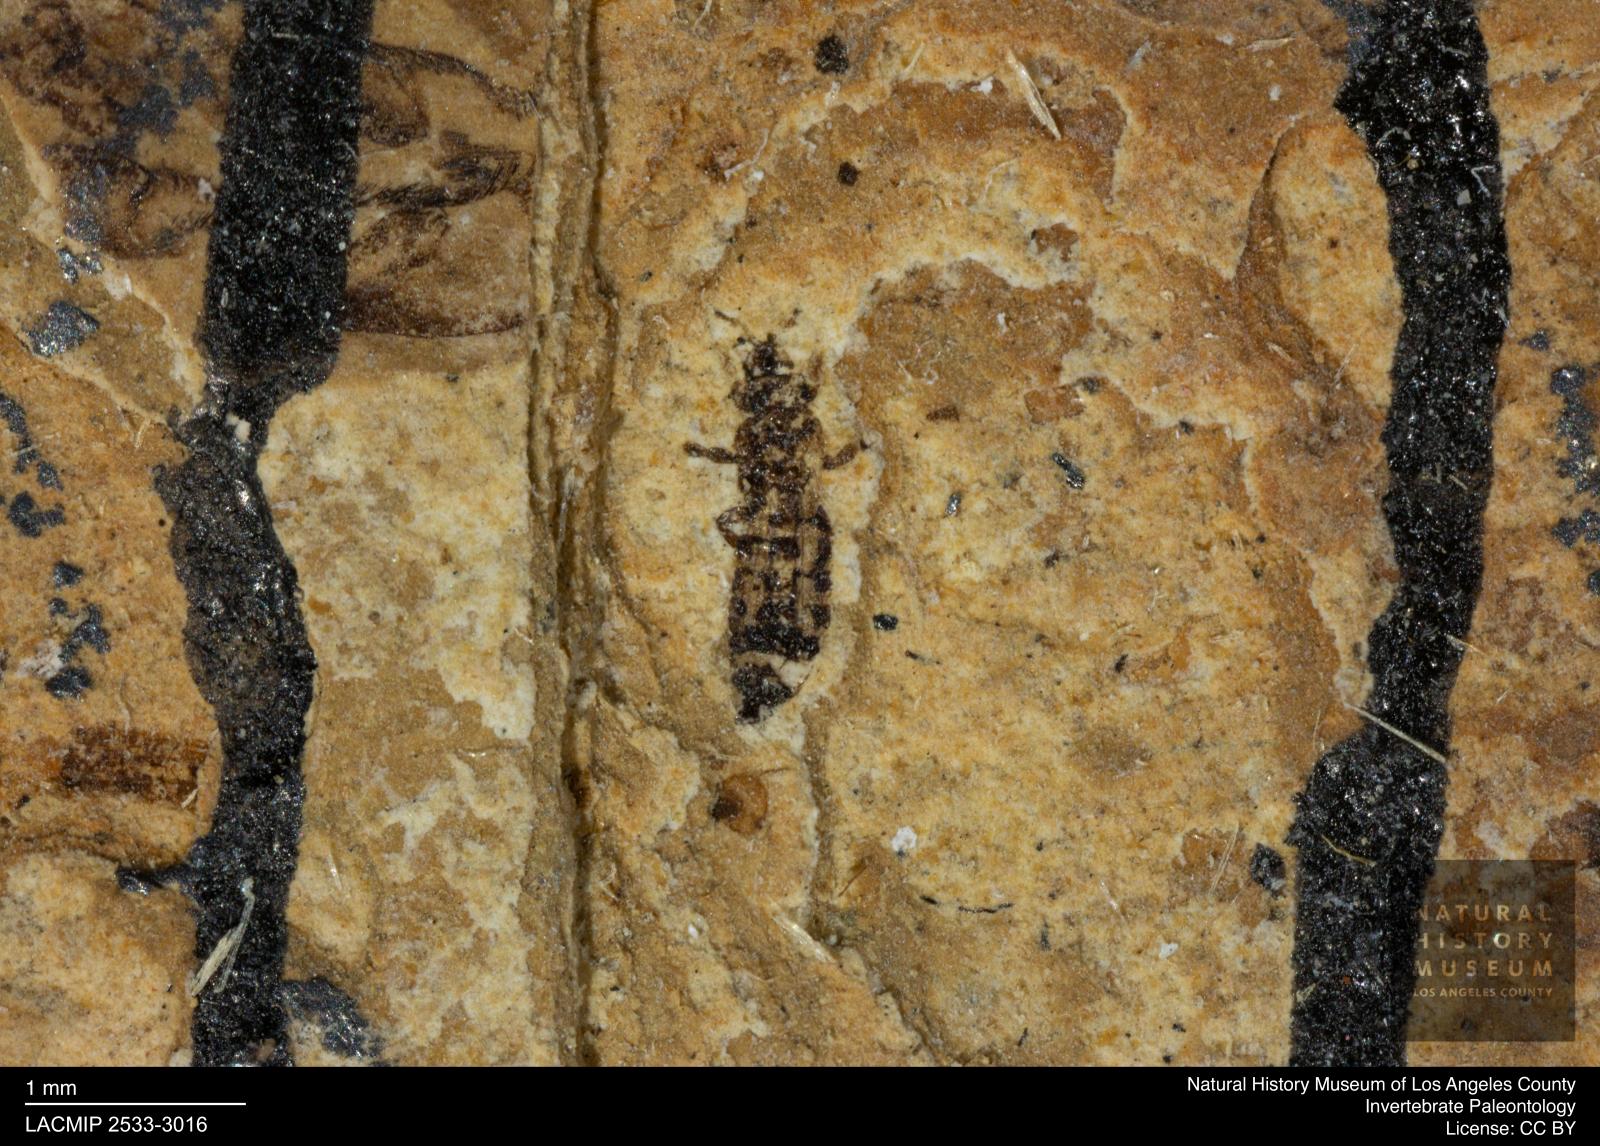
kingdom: Animalia
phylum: Arthropoda
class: Insecta
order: Thysanoptera
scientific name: Thysanoptera
